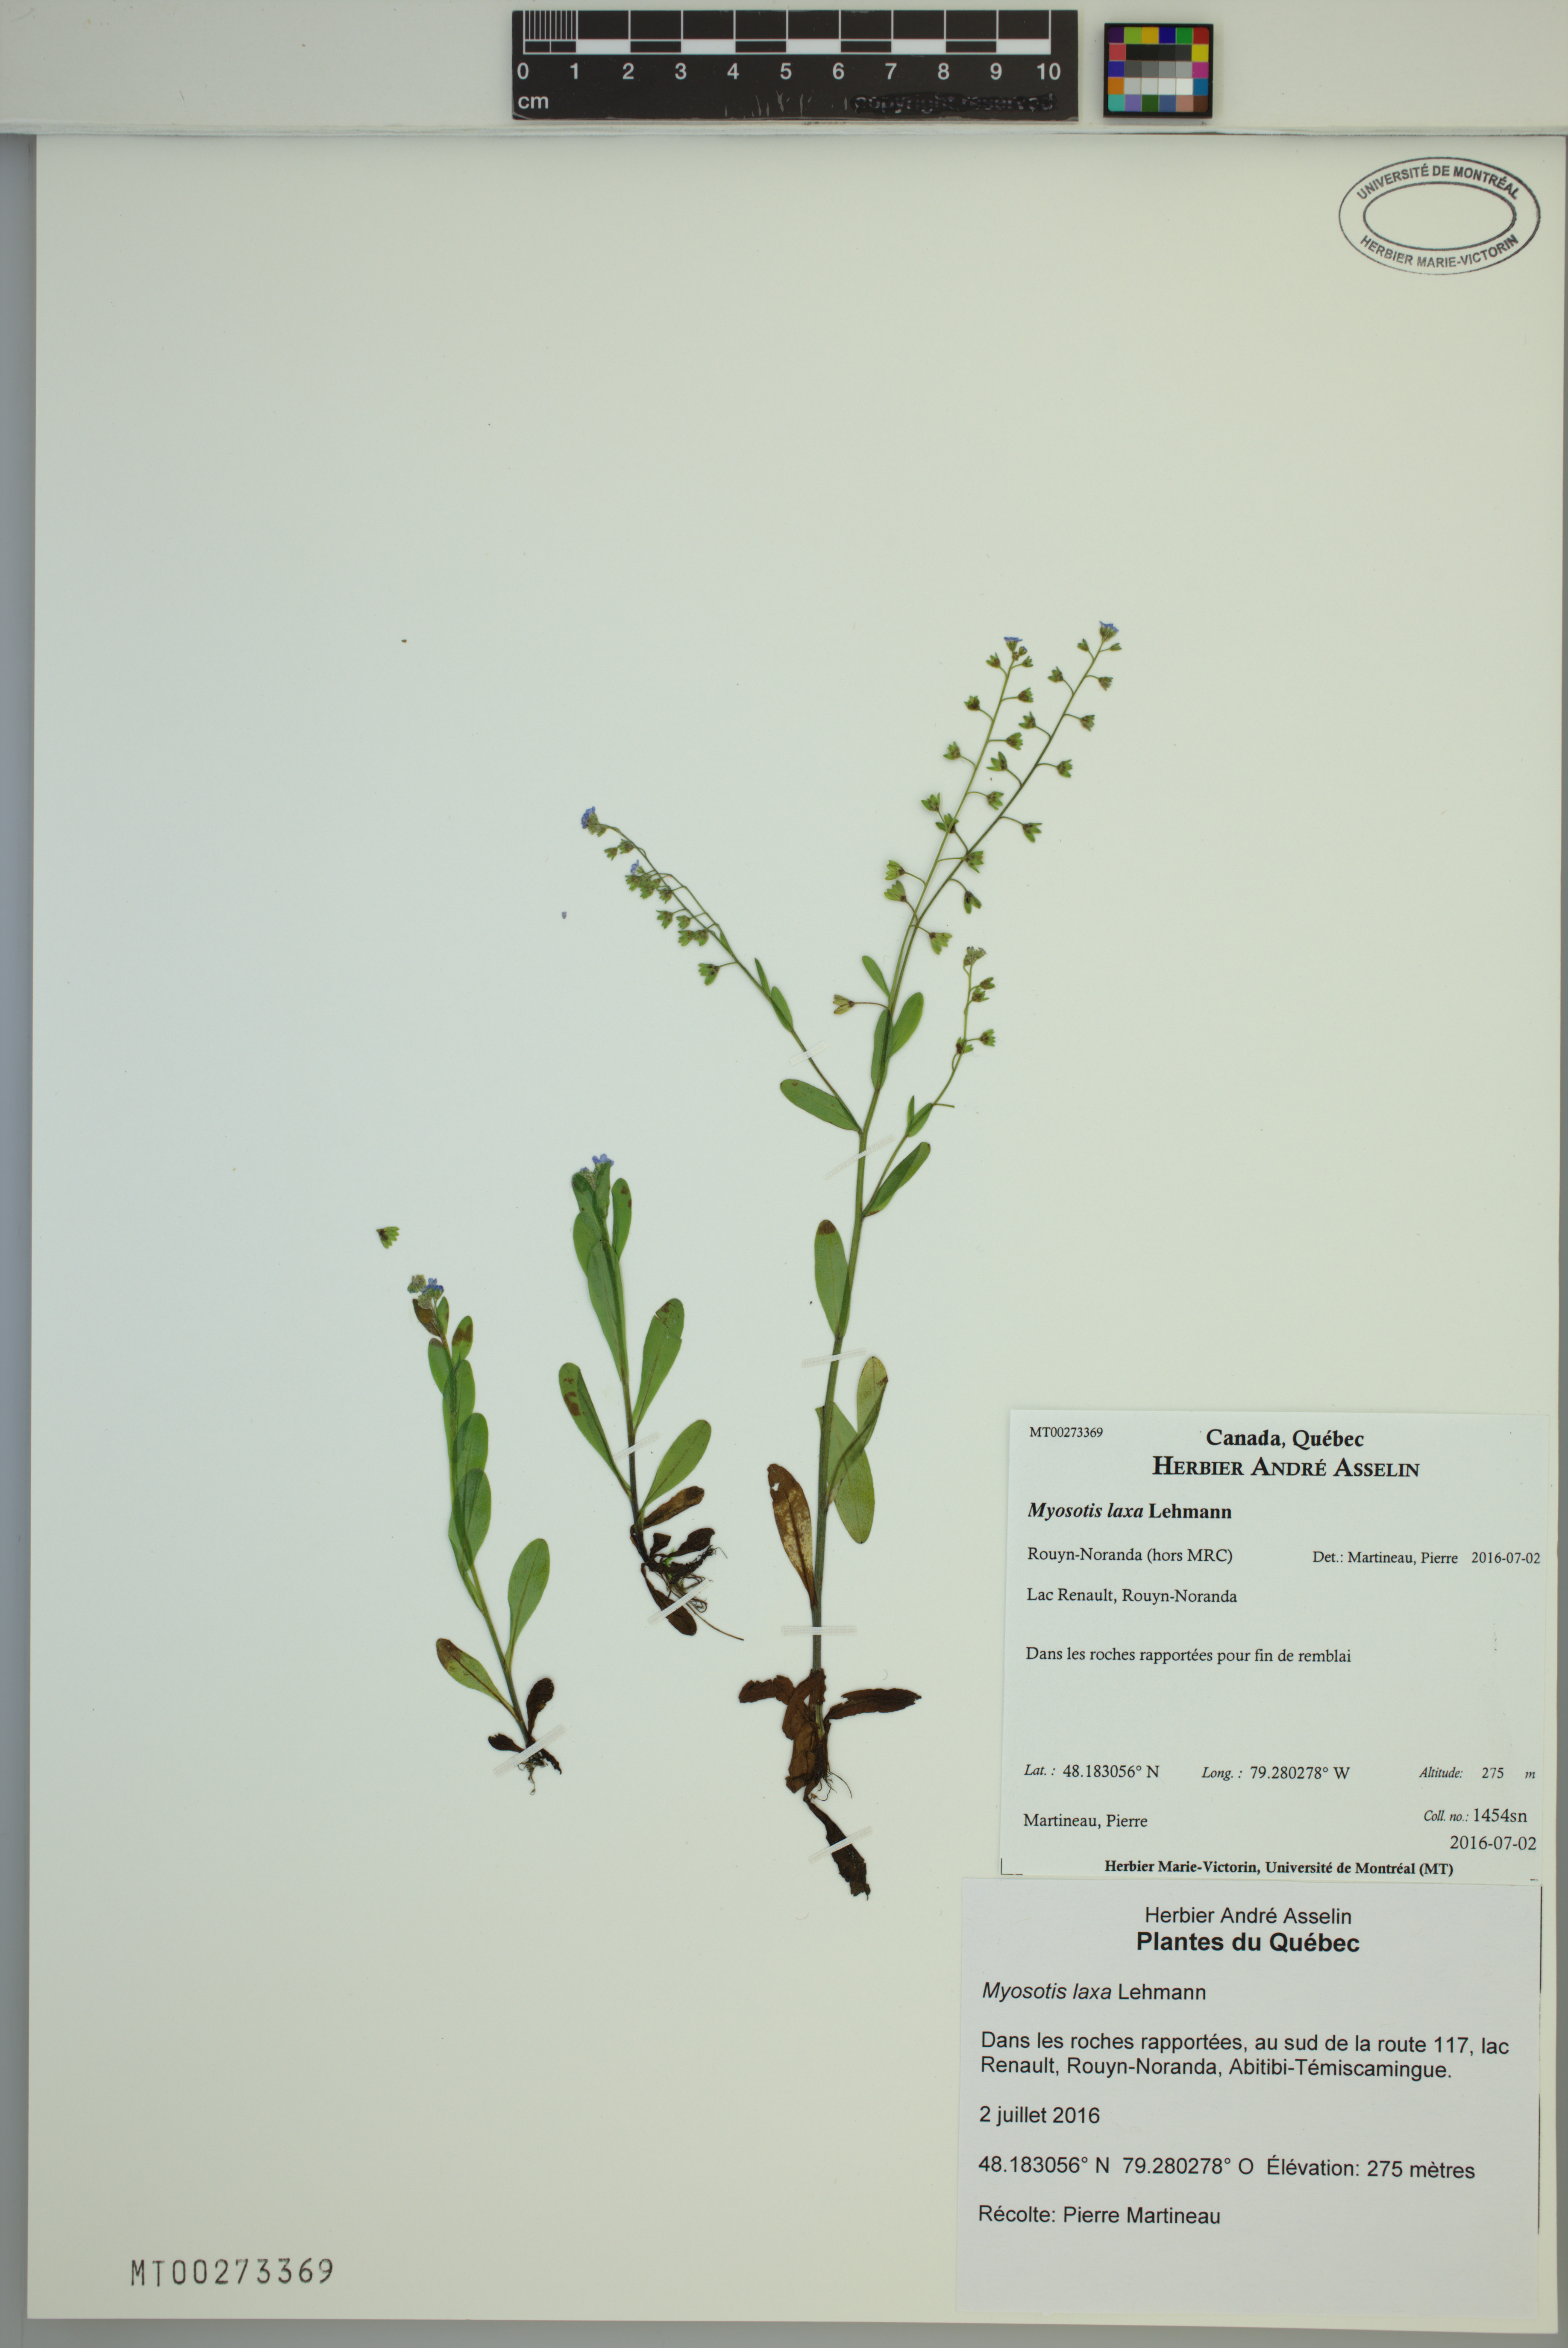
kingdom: Plantae
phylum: Tracheophyta
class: Magnoliopsida
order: Boraginales
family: Boraginaceae
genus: Myosotis
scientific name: Myosotis laxa
